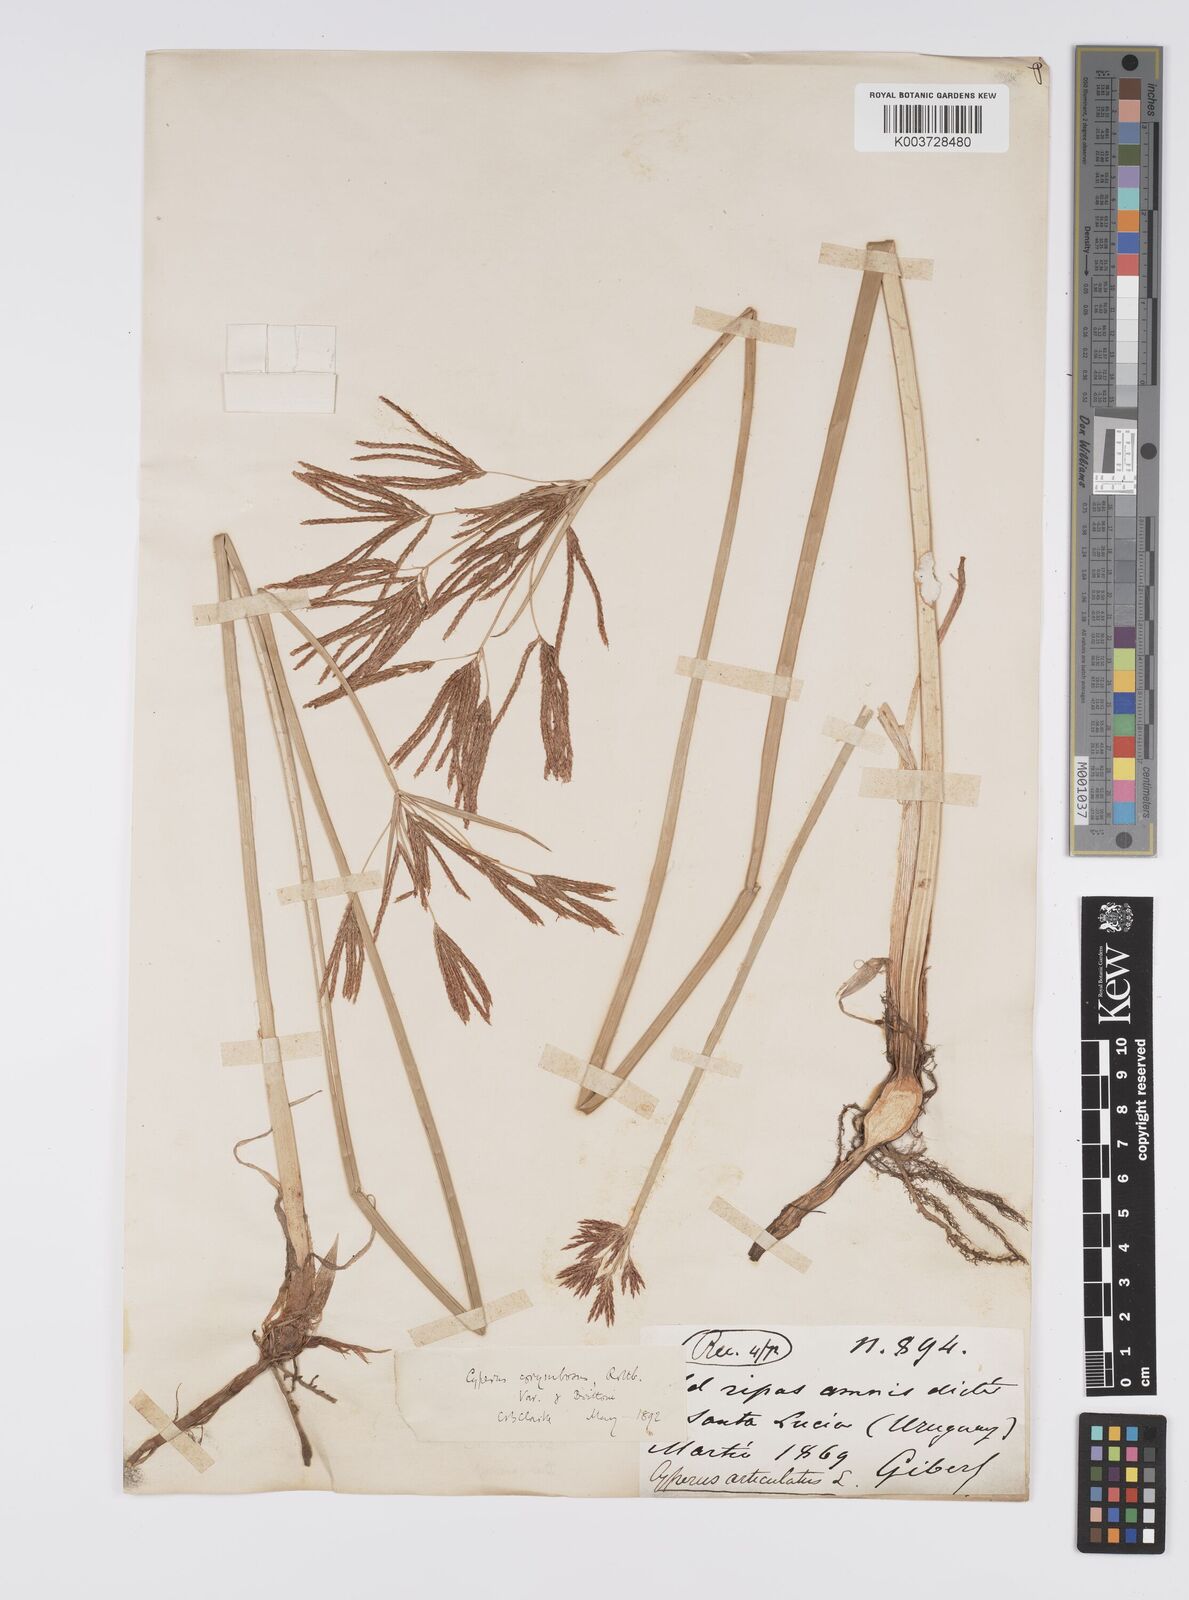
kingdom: Plantae
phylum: Tracheophyta
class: Liliopsida
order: Poales
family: Cyperaceae
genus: Cyperus
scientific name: Cyperus corymbosus
